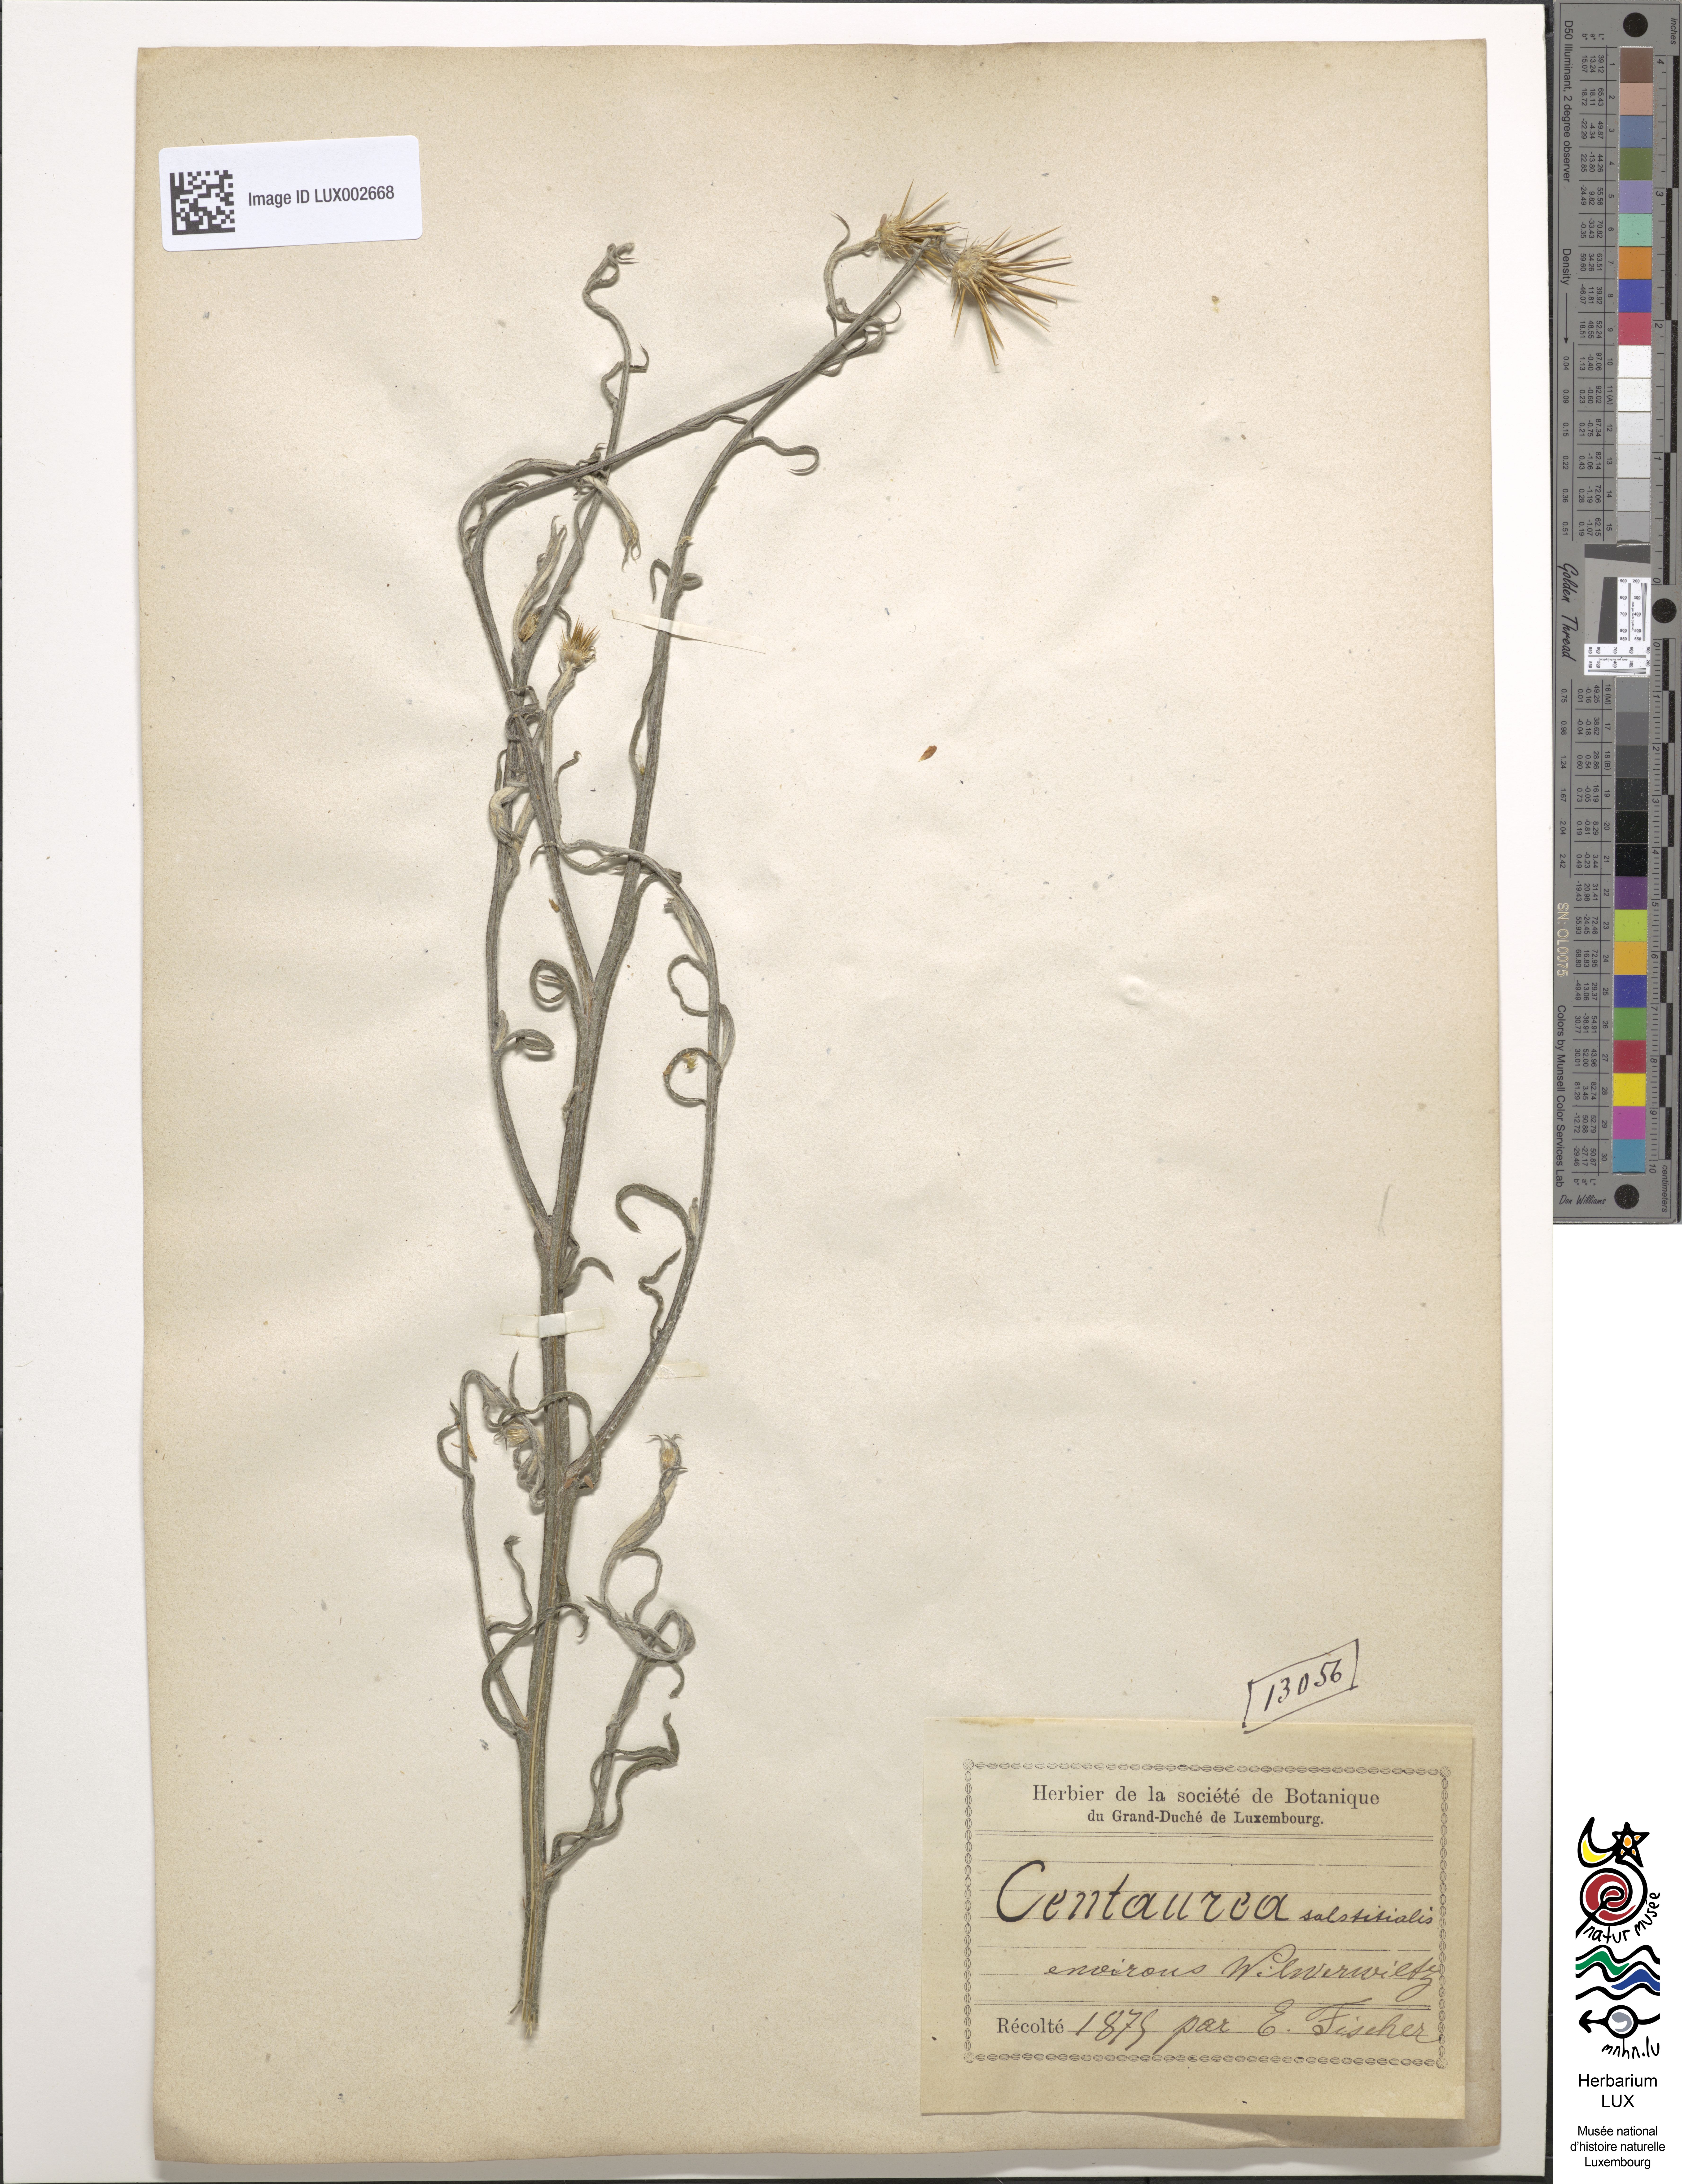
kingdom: Plantae
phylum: Tracheophyta
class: Magnoliopsida
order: Asterales
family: Asteraceae
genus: Centaurea
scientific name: Centaurea solstitialis
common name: Yellow star-thistle
